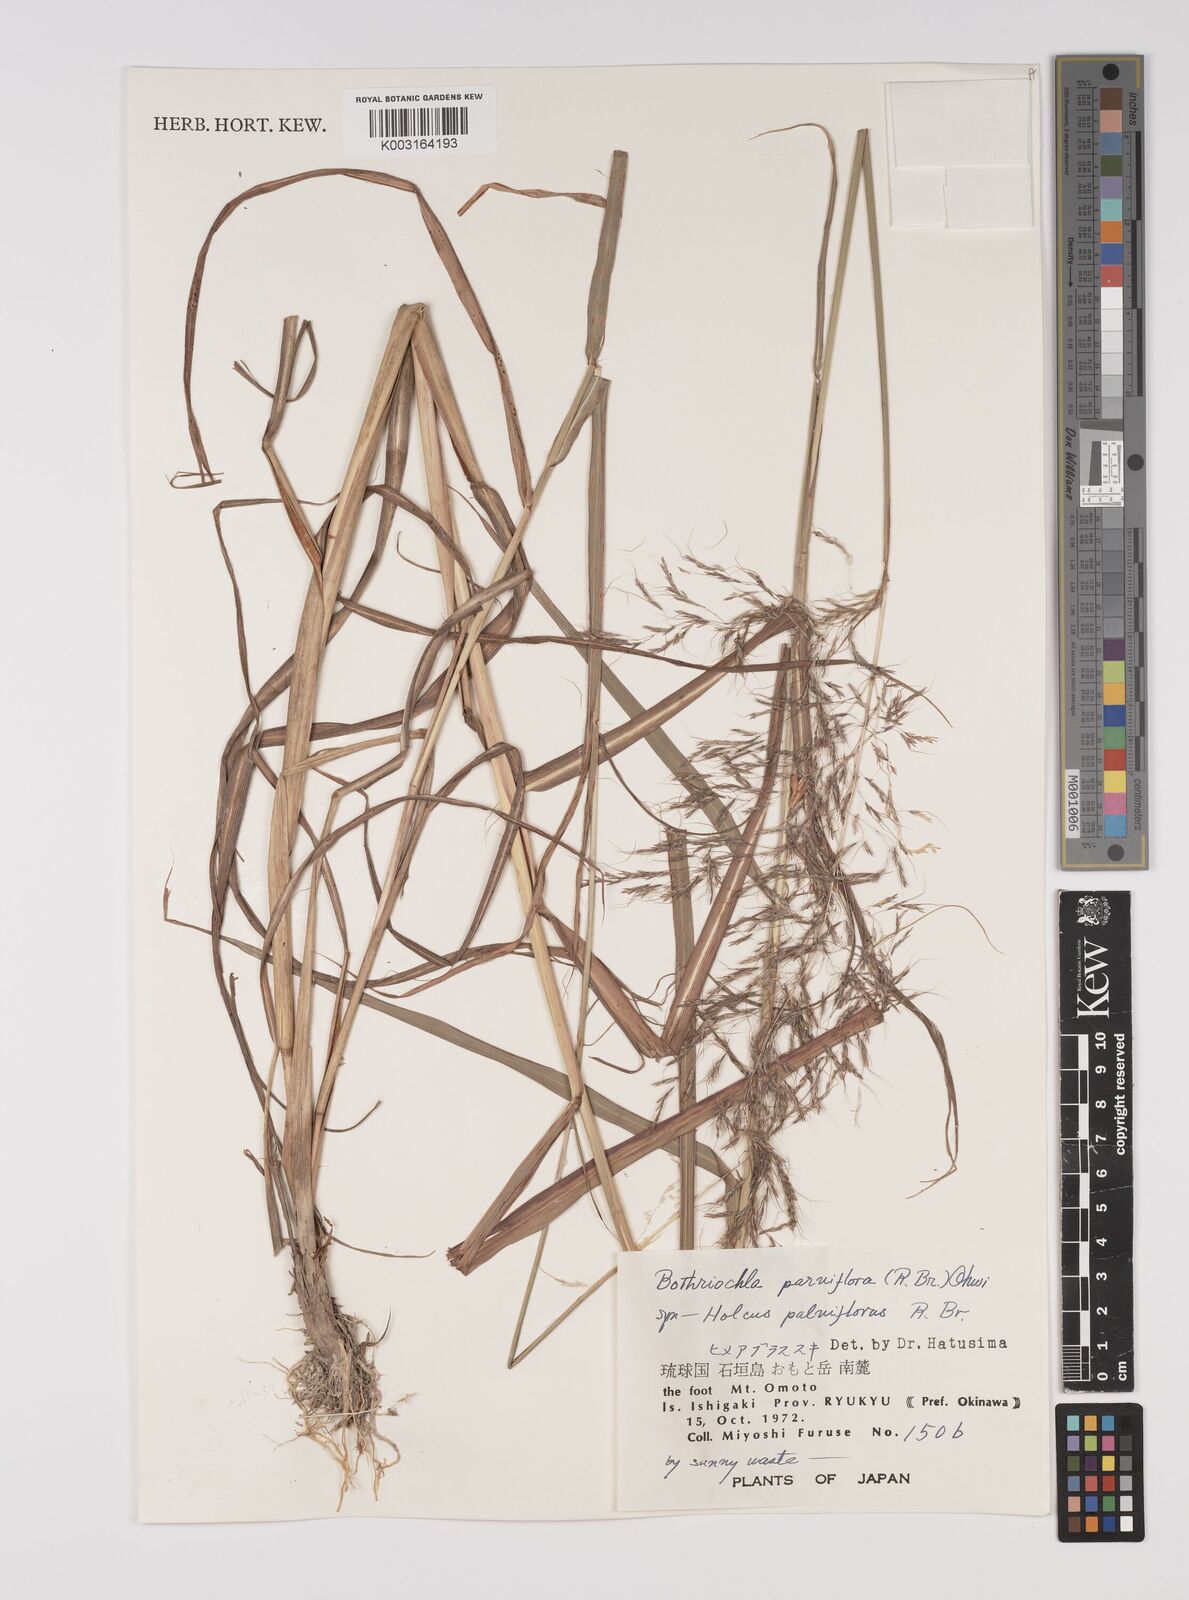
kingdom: Plantae
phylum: Tracheophyta
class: Liliopsida
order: Poales
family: Poaceae
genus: Capillipedium
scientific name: Capillipedium parviflorum
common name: Golden-beard
